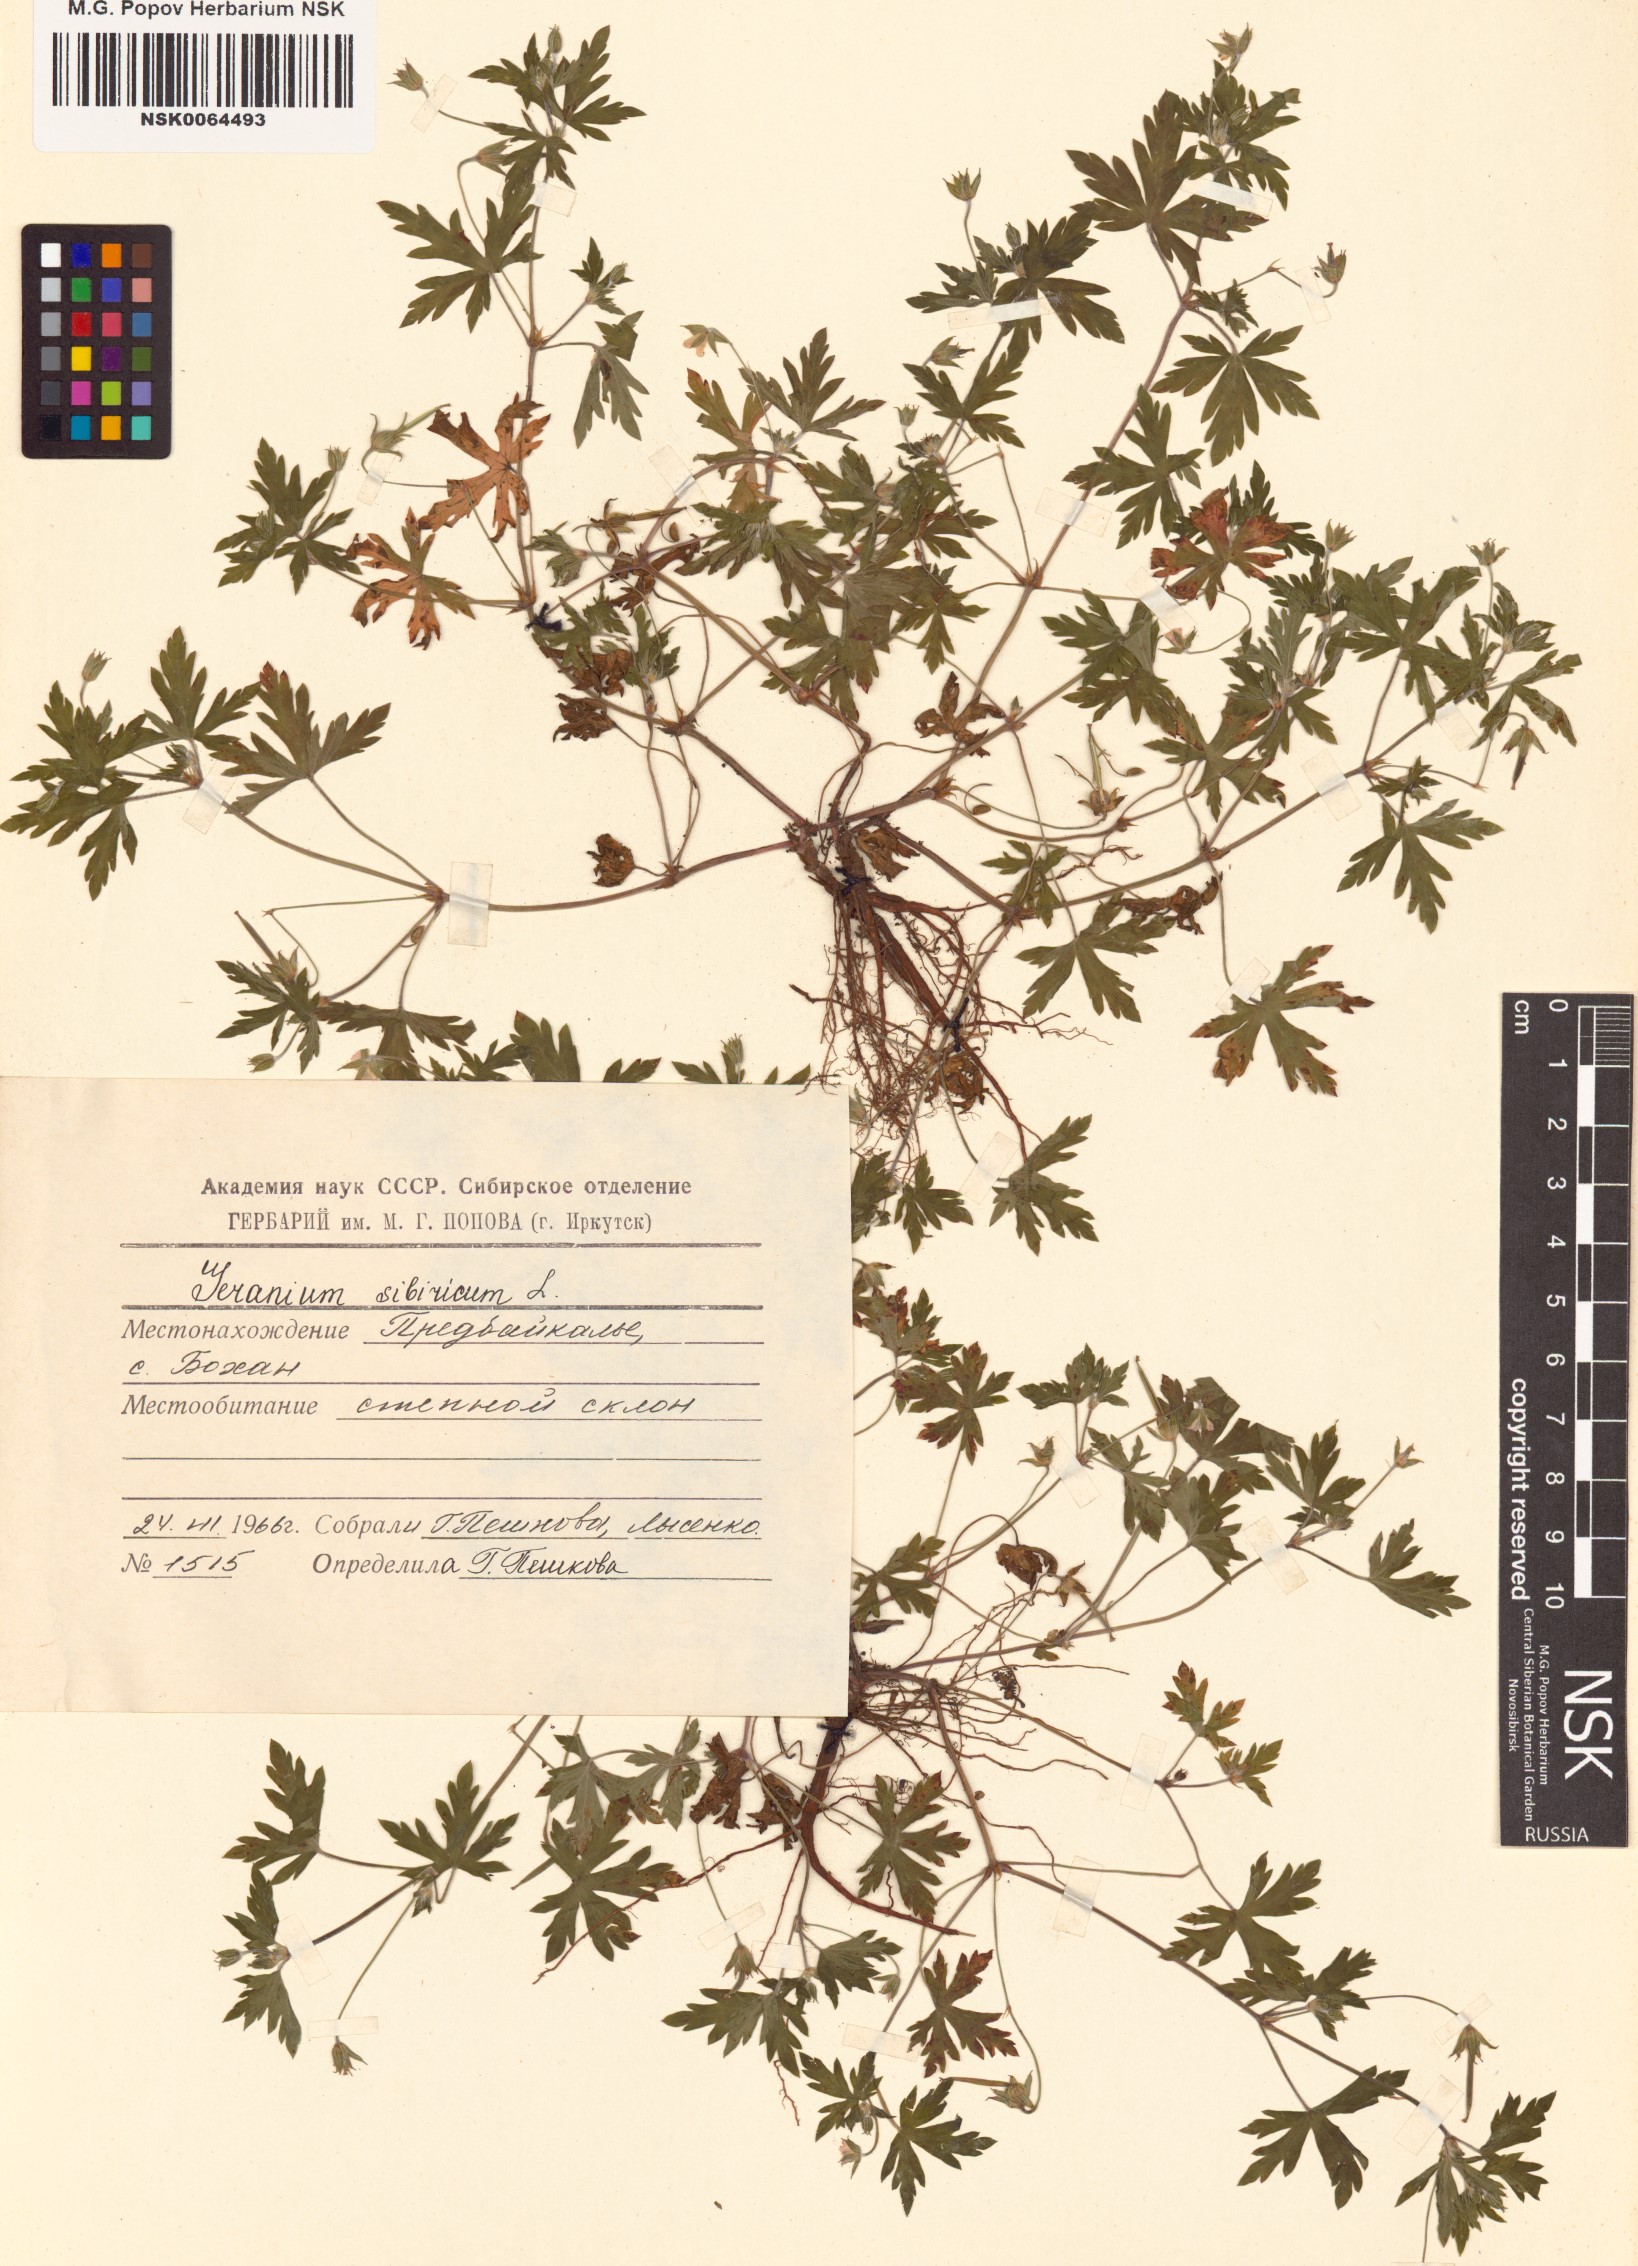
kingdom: Plantae
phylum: Tracheophyta
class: Magnoliopsida
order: Geraniales
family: Geraniaceae
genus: Geranium
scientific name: Geranium sibiricum
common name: Siberian crane's-bill
